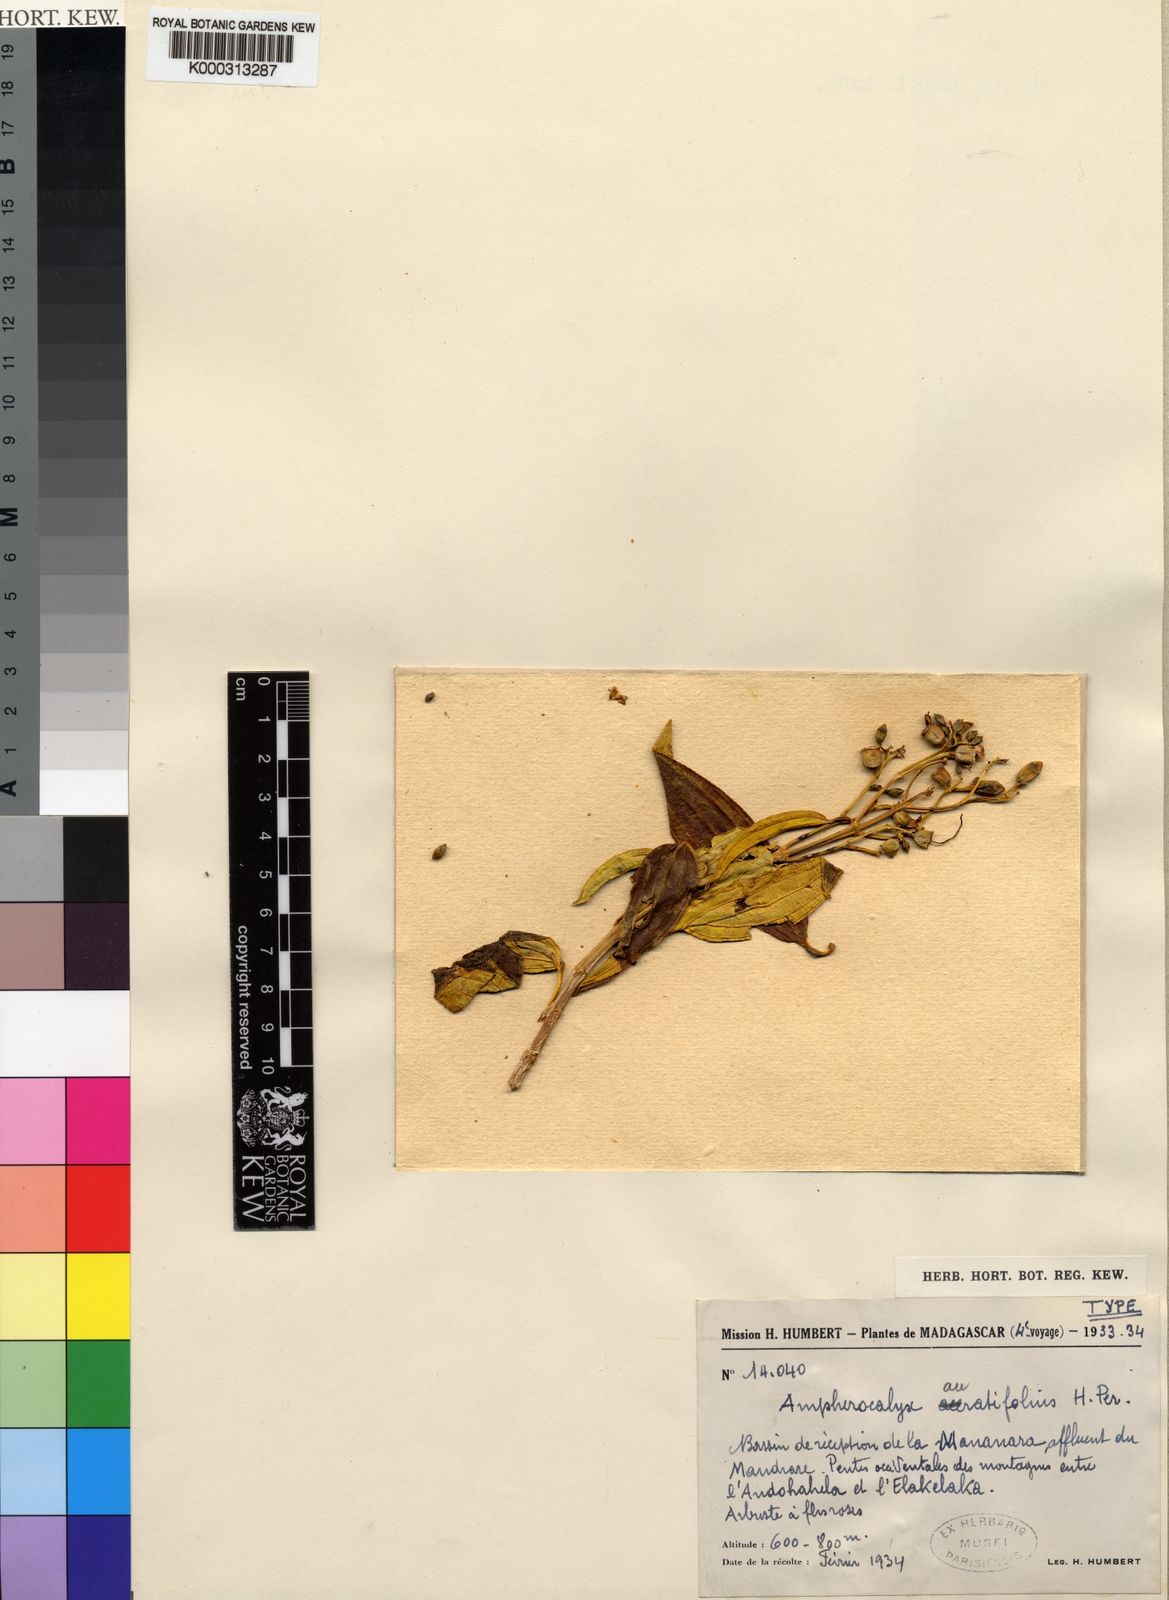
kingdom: Plantae
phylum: Tracheophyta
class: Magnoliopsida
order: Myrtales
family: Melastomataceae
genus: Amphorocalyx
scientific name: Amphorocalyx auratifolius
